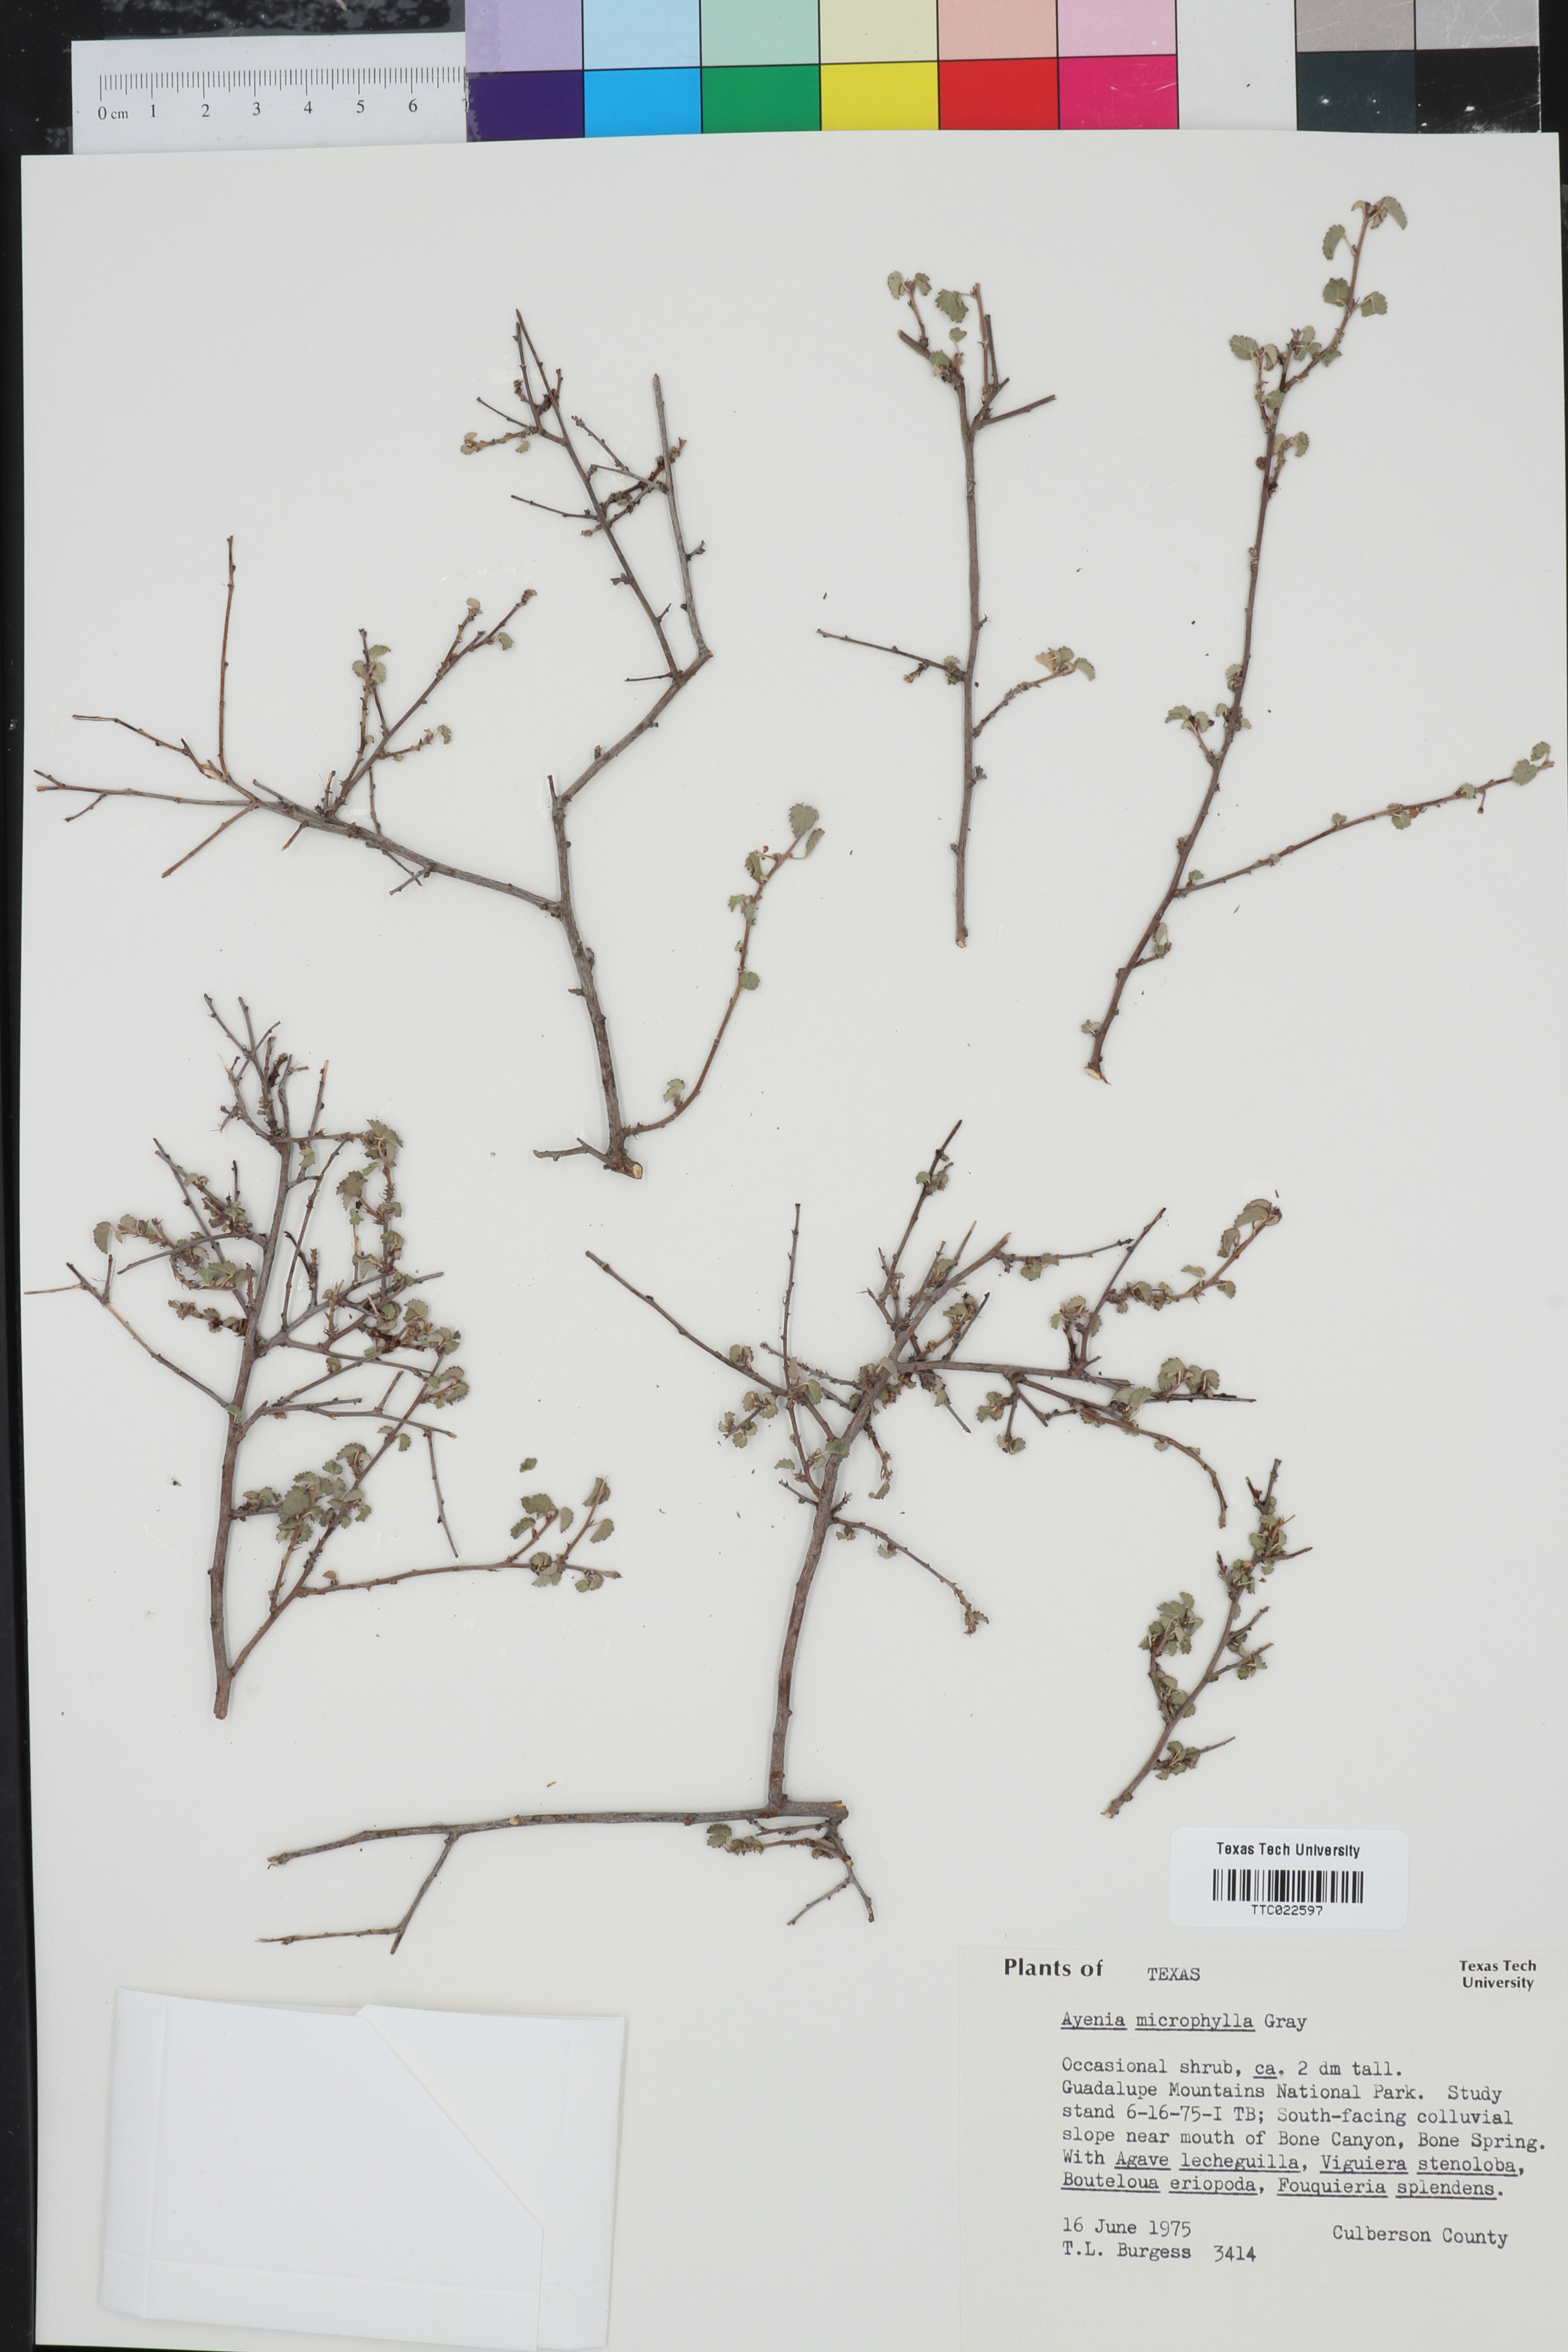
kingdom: Plantae
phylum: Tracheophyta
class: Magnoliopsida
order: Malvales
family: Malvaceae
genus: Ayenia
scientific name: Ayenia microphylla
